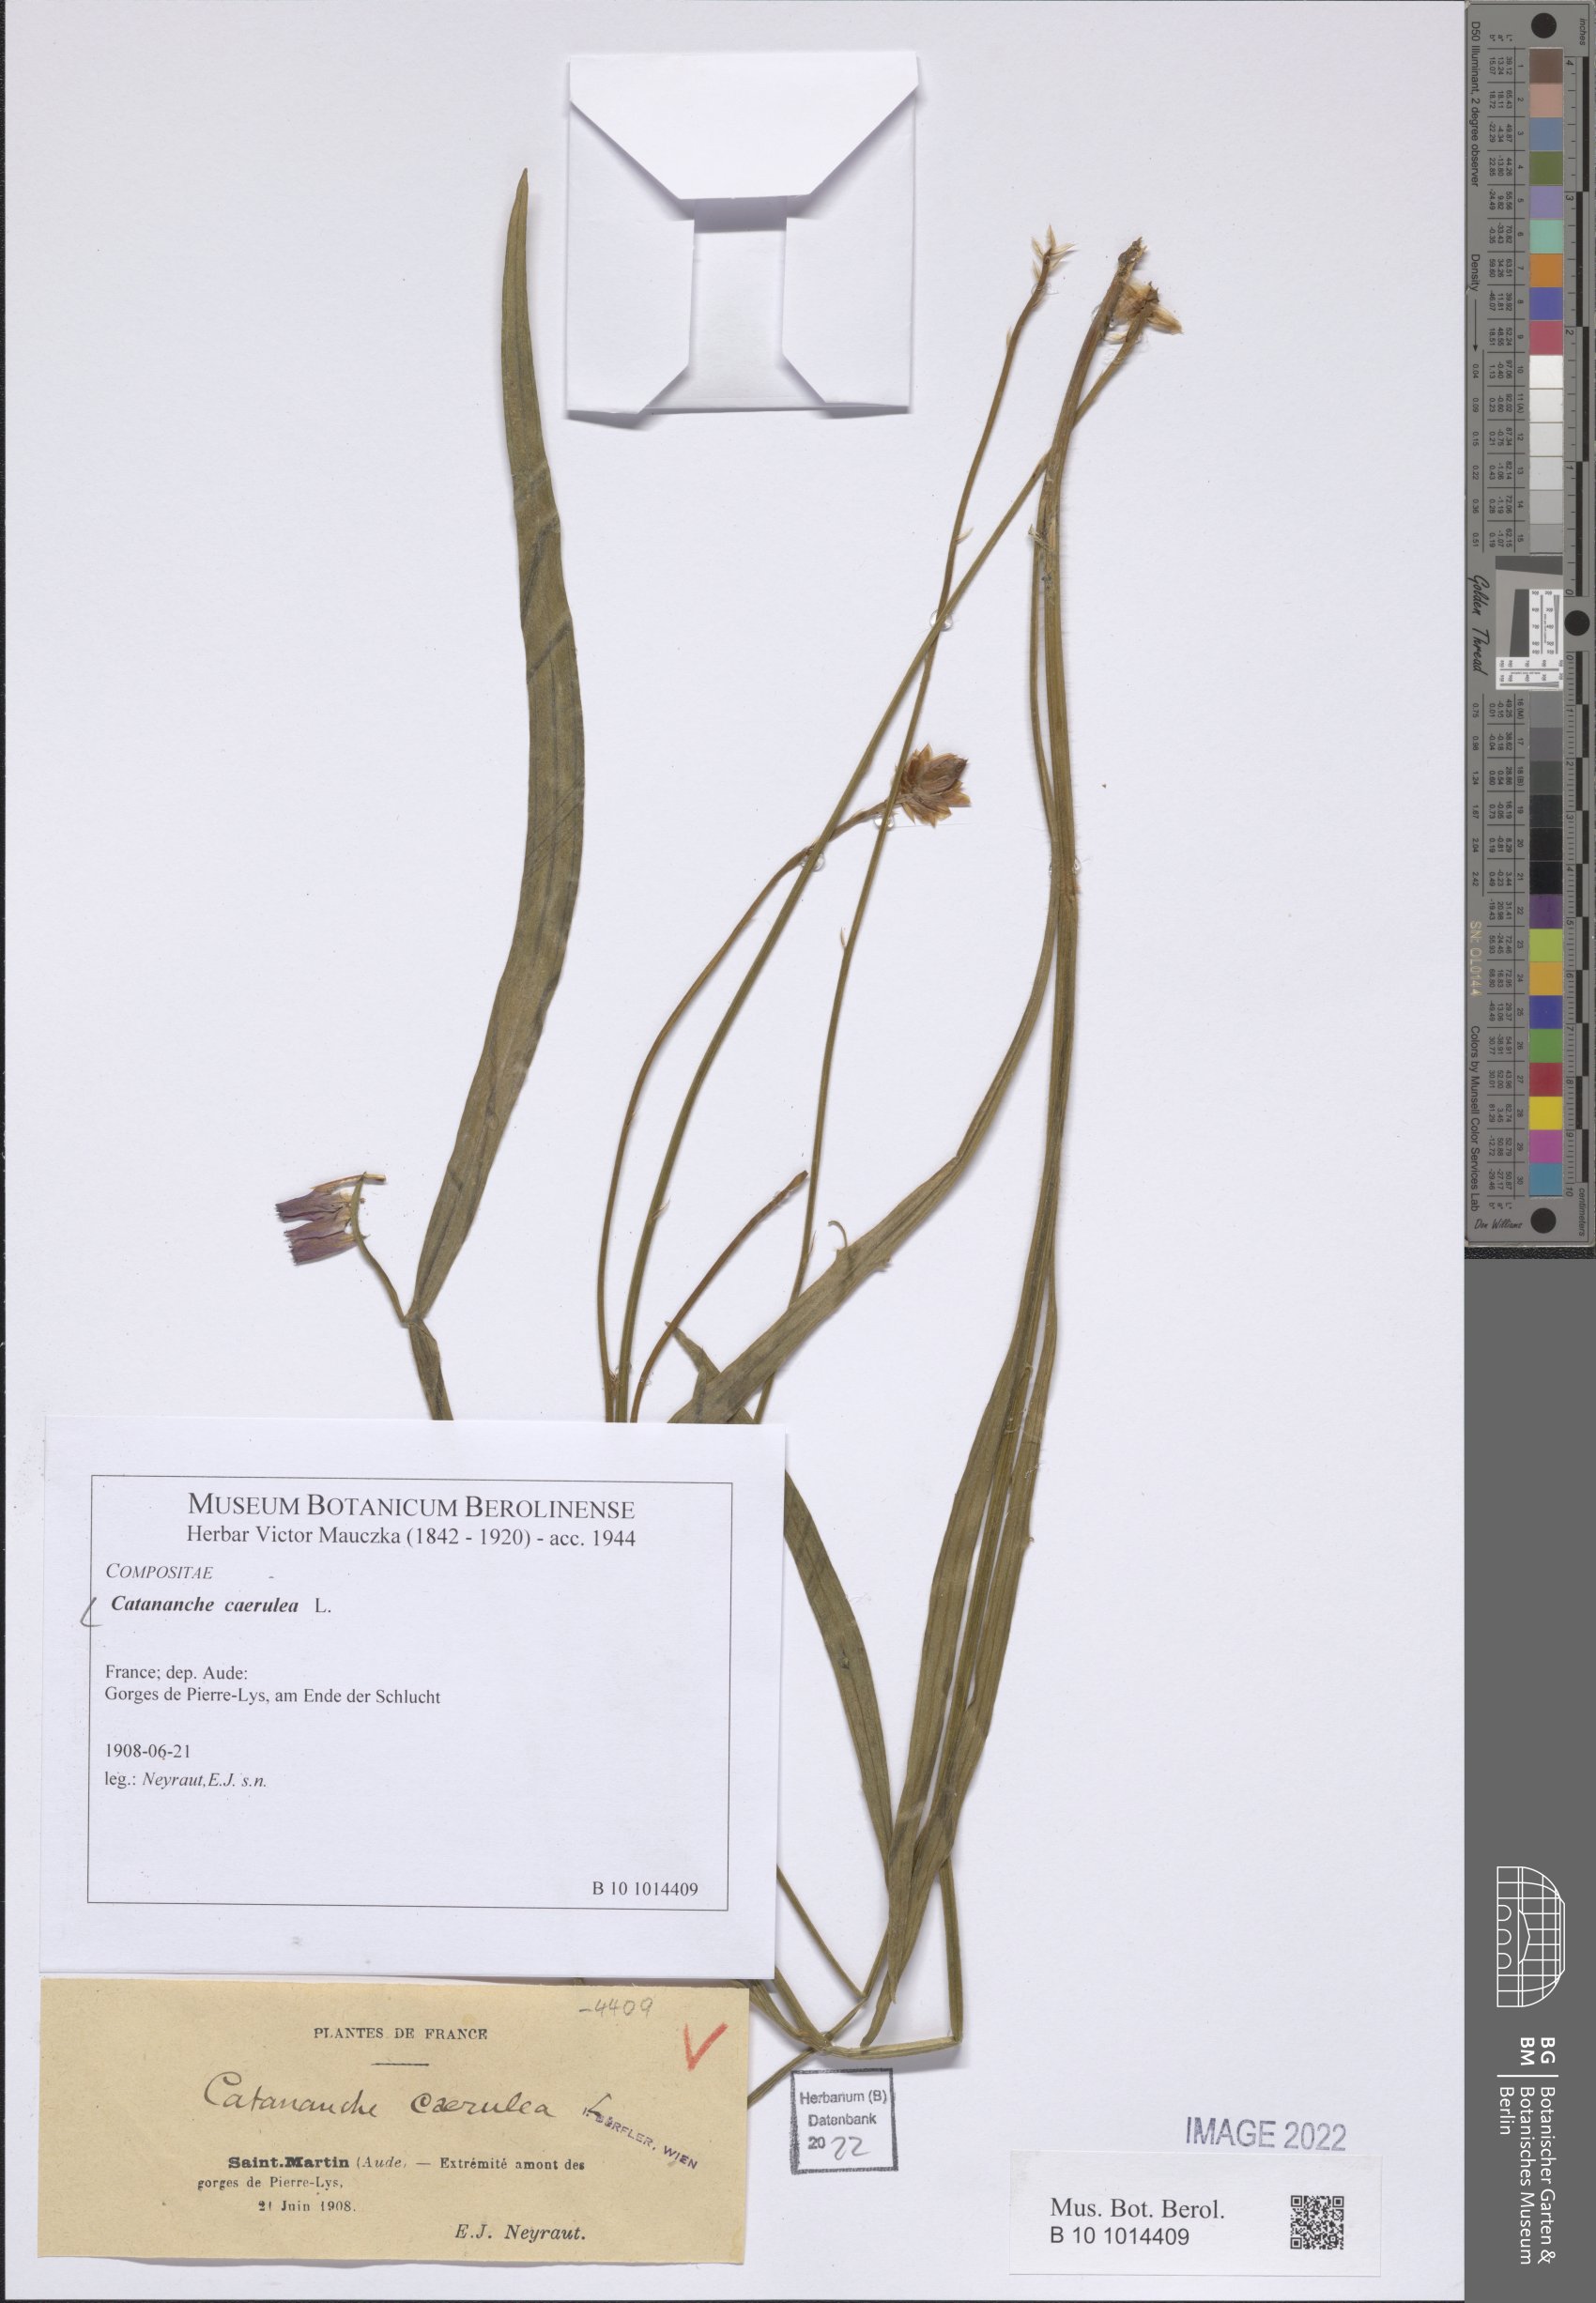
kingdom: Plantae
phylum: Tracheophyta
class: Magnoliopsida
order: Asterales
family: Asteraceae
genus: Catananche
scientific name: Catananche caerulea
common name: Blue cupidone
